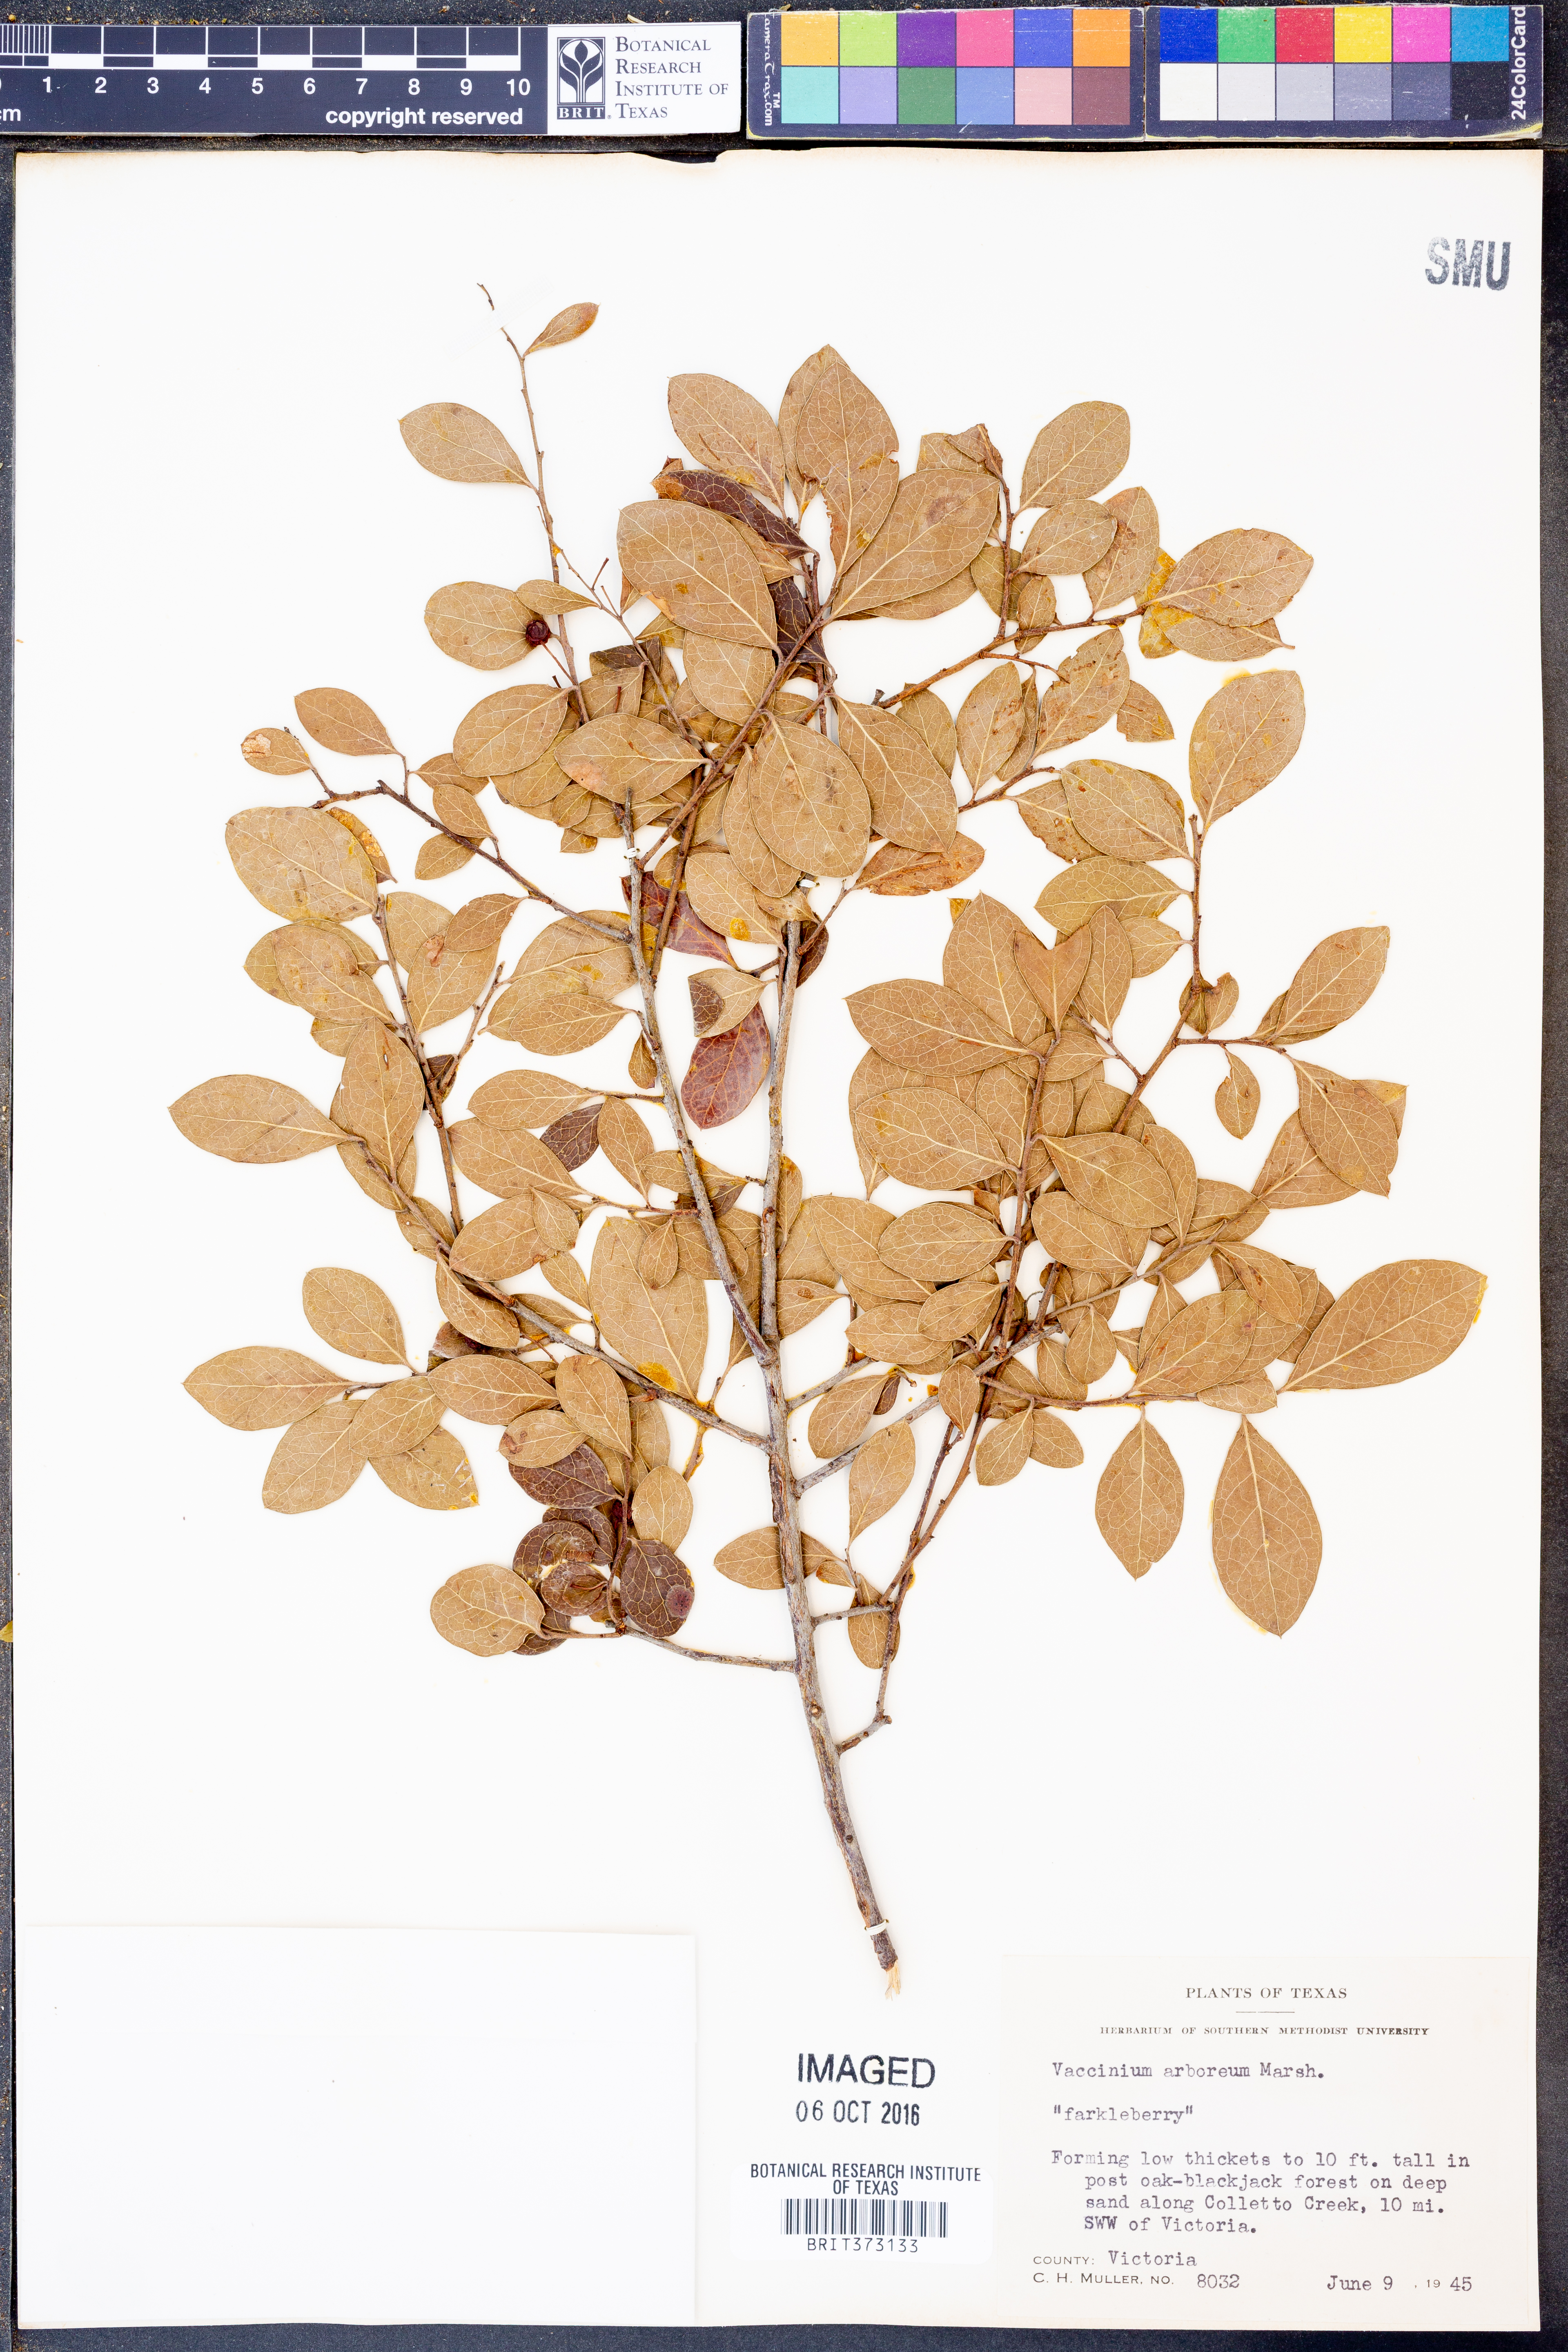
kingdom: Plantae
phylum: Tracheophyta
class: Magnoliopsida
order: Ericales
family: Ericaceae
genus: Vaccinium
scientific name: Vaccinium arboreum
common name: Farkleberry
